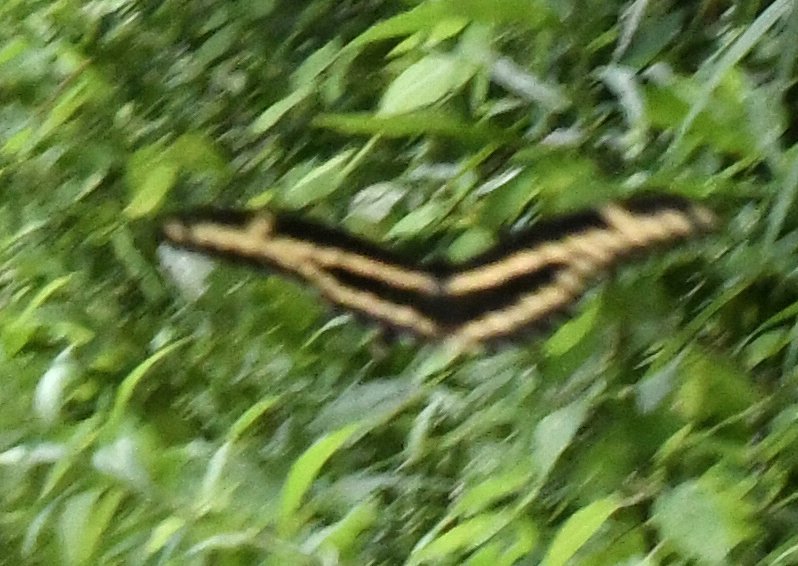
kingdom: Animalia
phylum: Arthropoda
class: Insecta
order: Lepidoptera
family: Papilionidae
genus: Papilio
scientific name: Papilio cresphontes
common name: Eastern Giant Swallowtail
